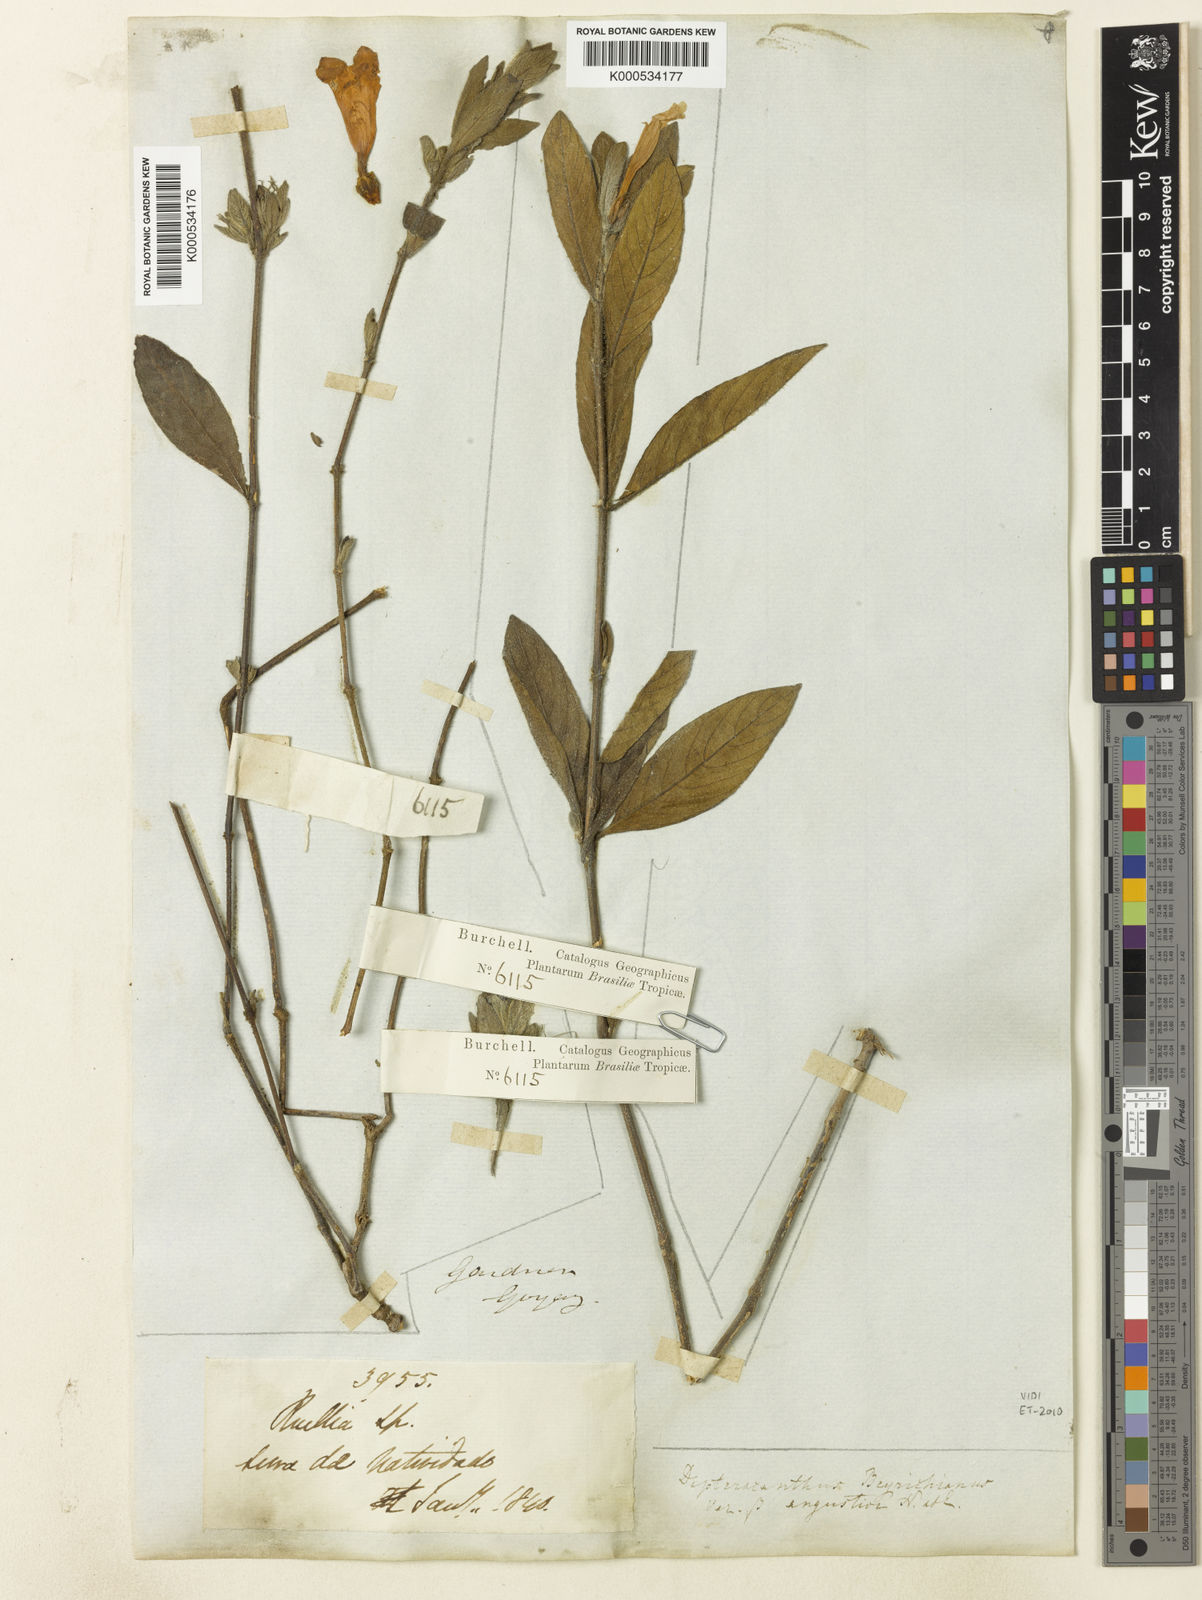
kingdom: Plantae
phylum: Tracheophyta
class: Magnoliopsida
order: Lamiales
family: Acanthaceae
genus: Ruellia
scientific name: Ruellia beyrichiana
